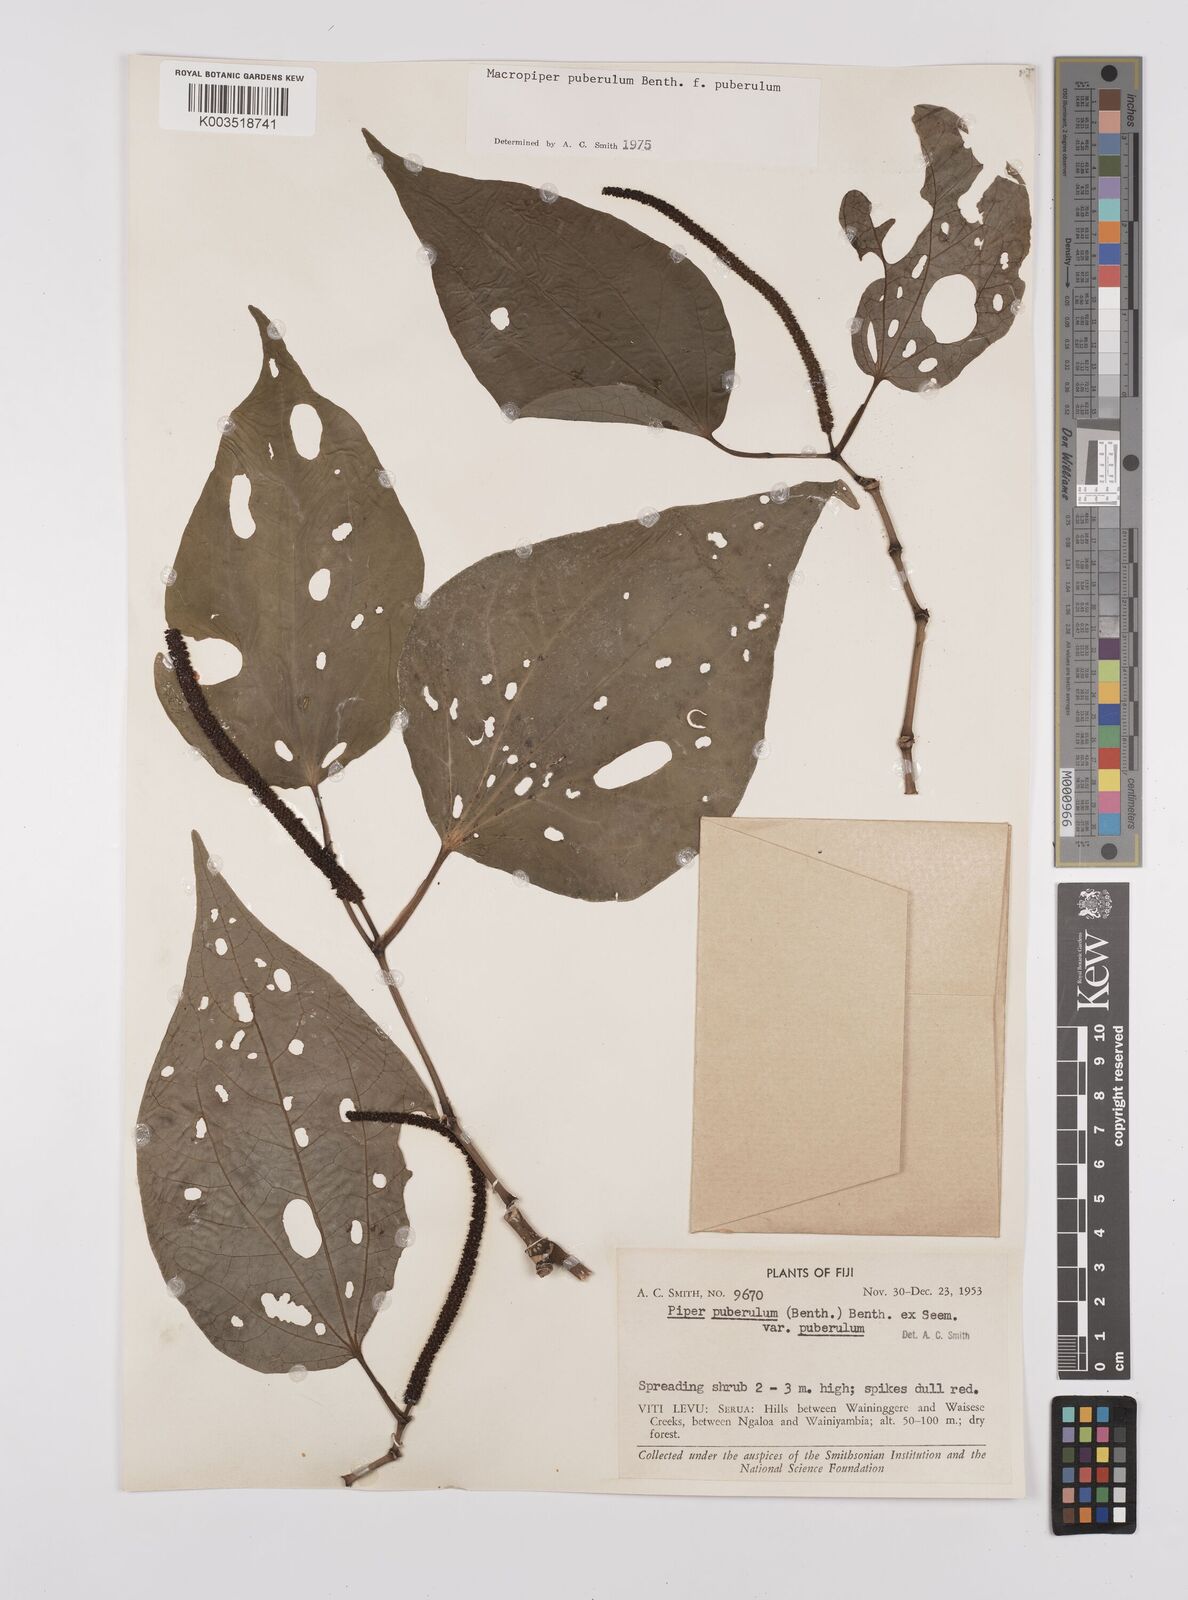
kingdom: Plantae
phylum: Tracheophyta
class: Magnoliopsida
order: Piperales
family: Piperaceae
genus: Macropiper
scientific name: Macropiper puberulum
